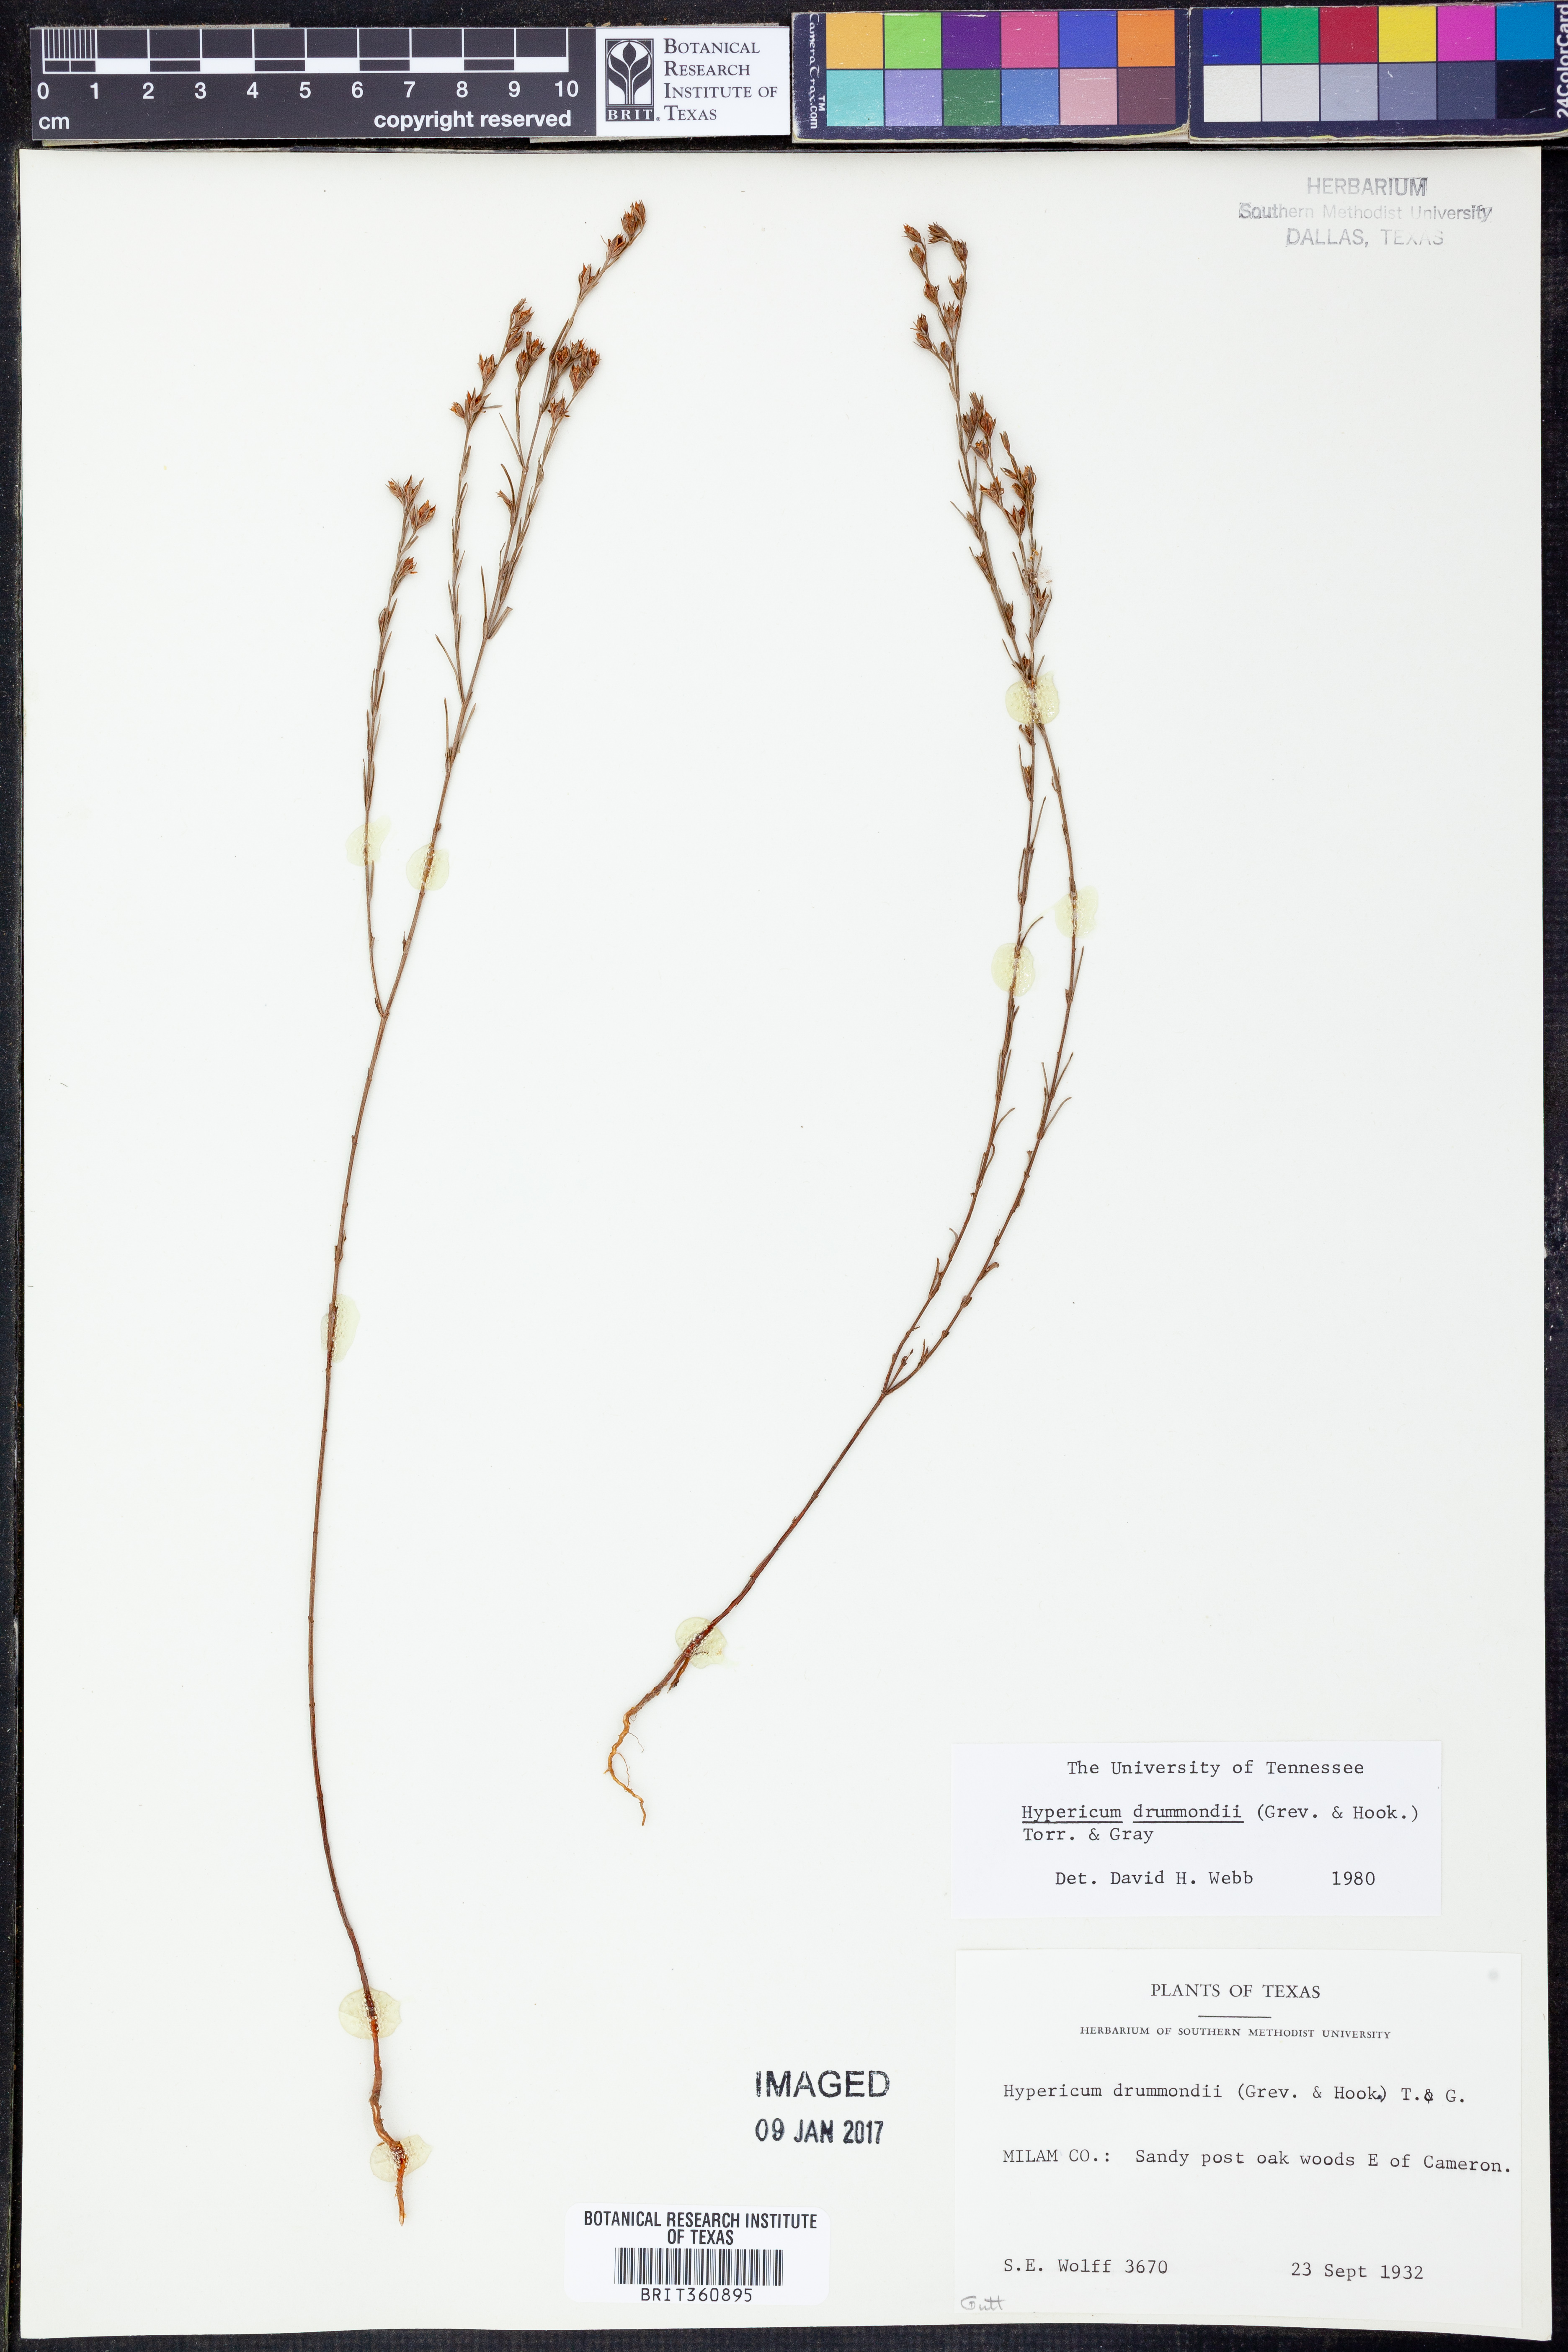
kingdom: Plantae
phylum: Tracheophyta
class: Magnoliopsida
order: Malpighiales
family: Hypericaceae
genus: Hypericum
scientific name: Hypericum drummondii
